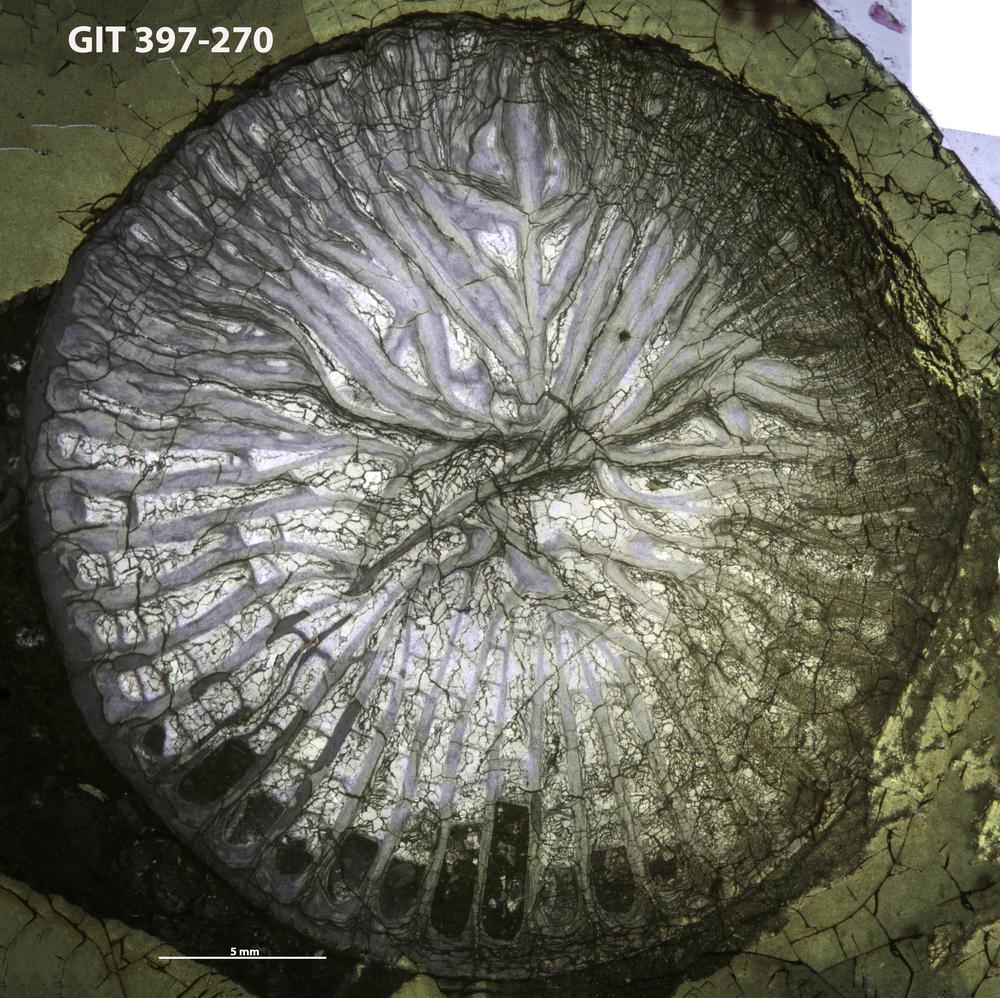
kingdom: Animalia
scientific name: Animalia
